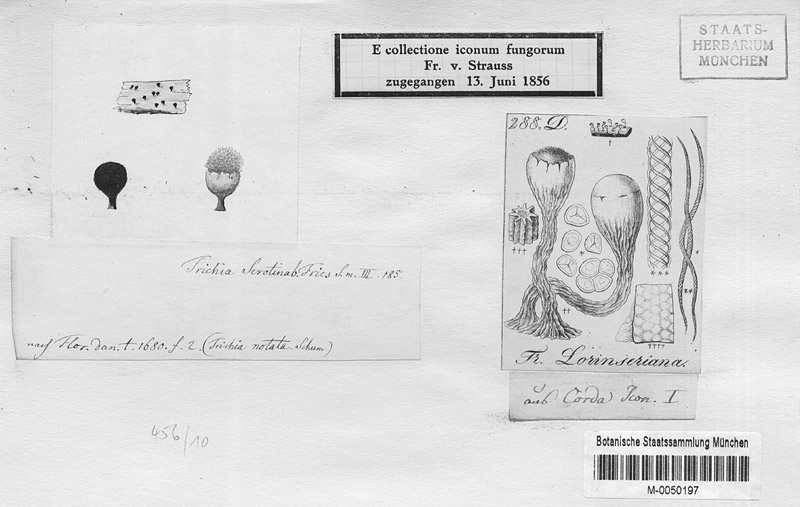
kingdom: Protozoa
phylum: Mycetozoa
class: Myxomycetes
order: Trichiales
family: Trichiaceae
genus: Trichia
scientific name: Trichia botrytis
